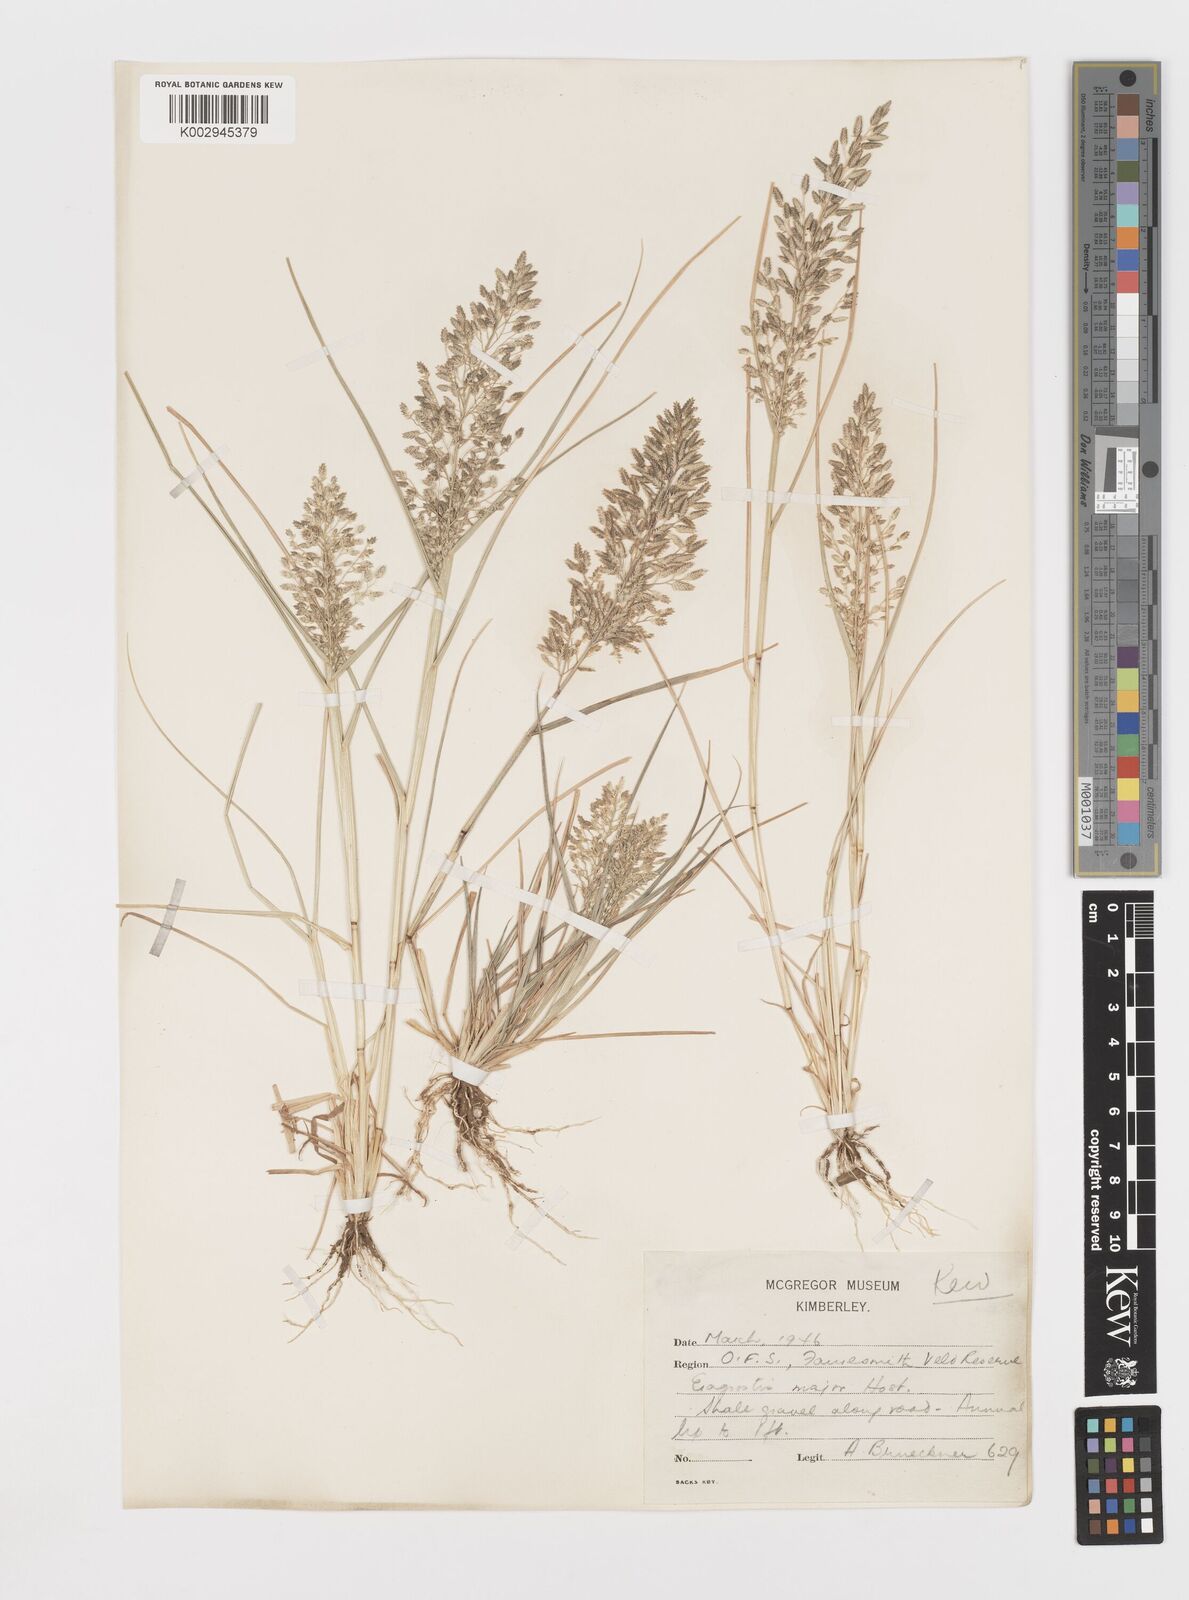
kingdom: Plantae
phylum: Tracheophyta
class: Liliopsida
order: Poales
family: Poaceae
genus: Eragrostis
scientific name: Eragrostis cilianensis
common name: Stinkgrass
